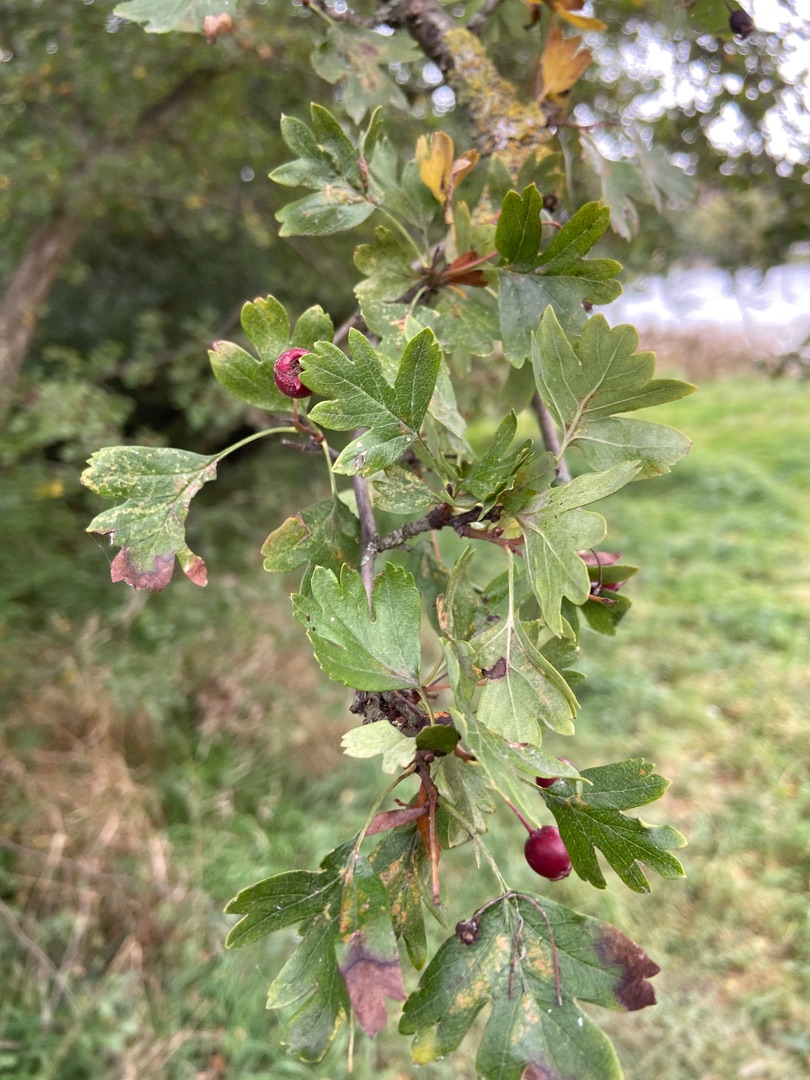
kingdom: Plantae
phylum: Tracheophyta
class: Magnoliopsida
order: Rosales
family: Rosaceae
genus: Crataegus
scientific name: Crataegus monogyna
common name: Engriflet hvidtjørn
